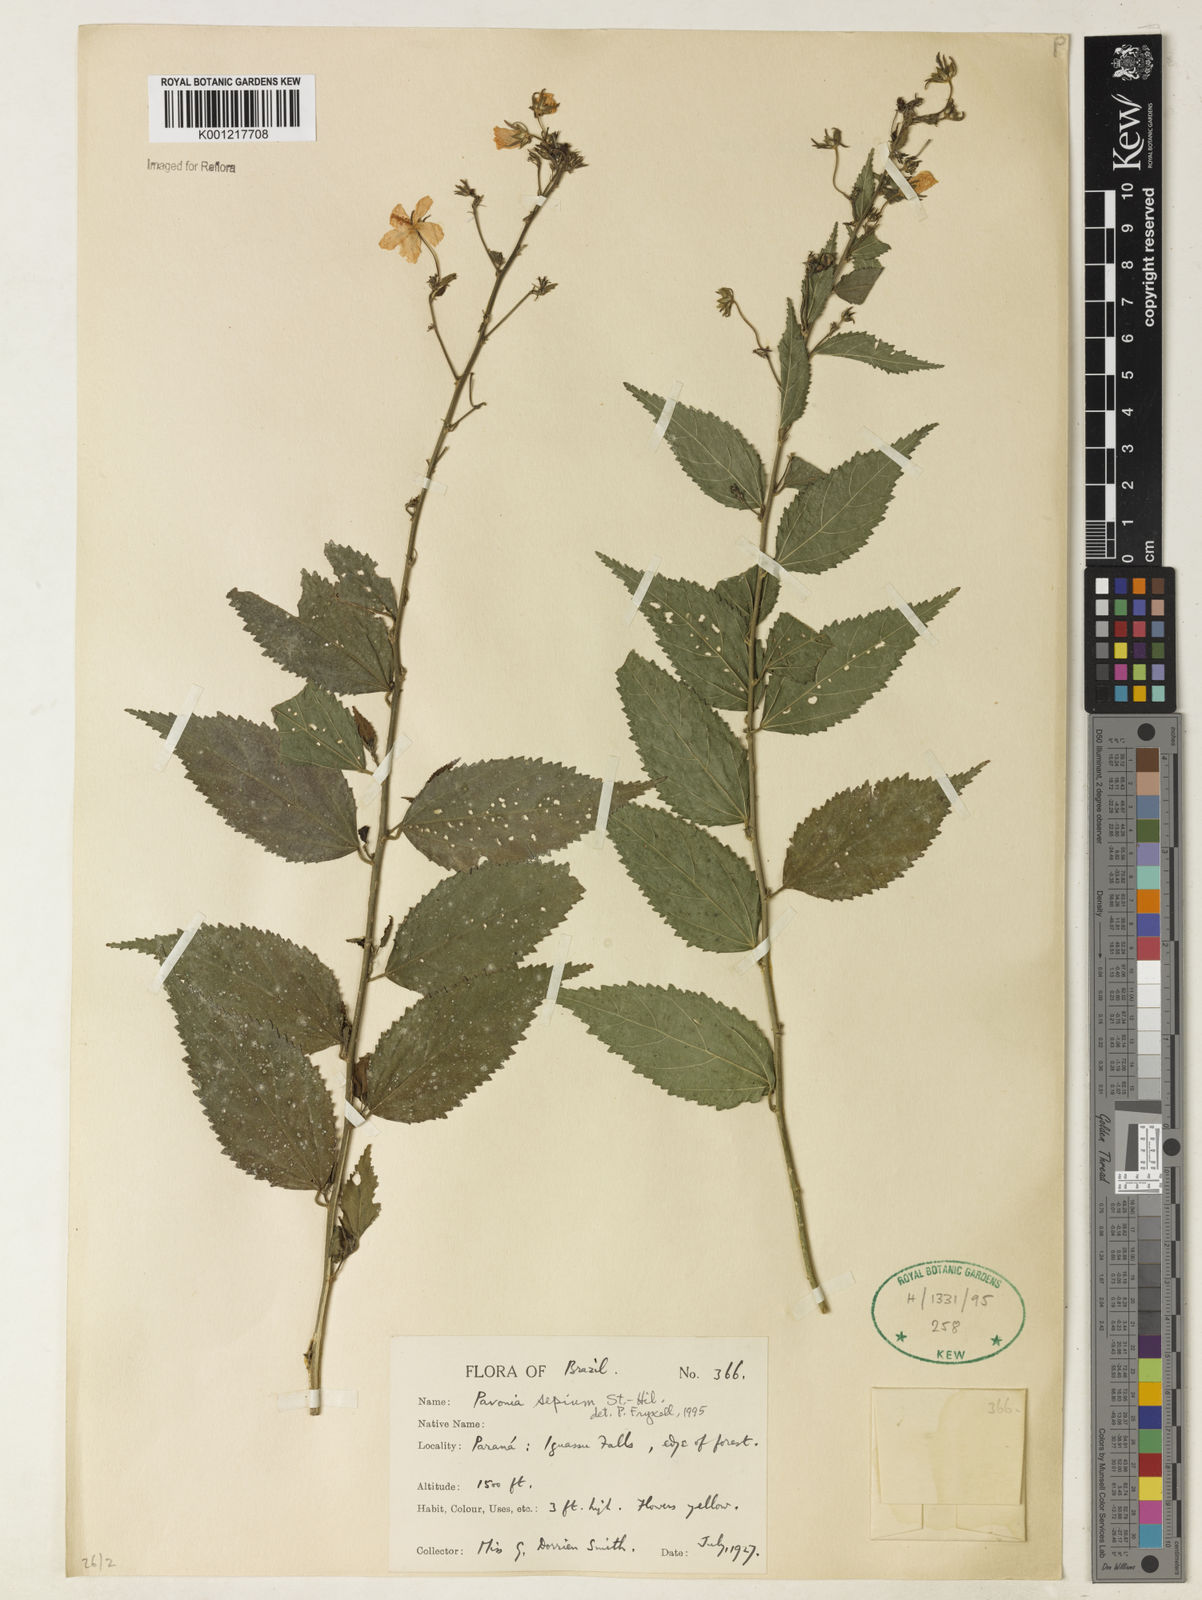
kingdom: Plantae
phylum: Tracheophyta
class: Magnoliopsida
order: Malvales
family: Malvaceae
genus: Pavonia
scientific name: Pavonia sepium
